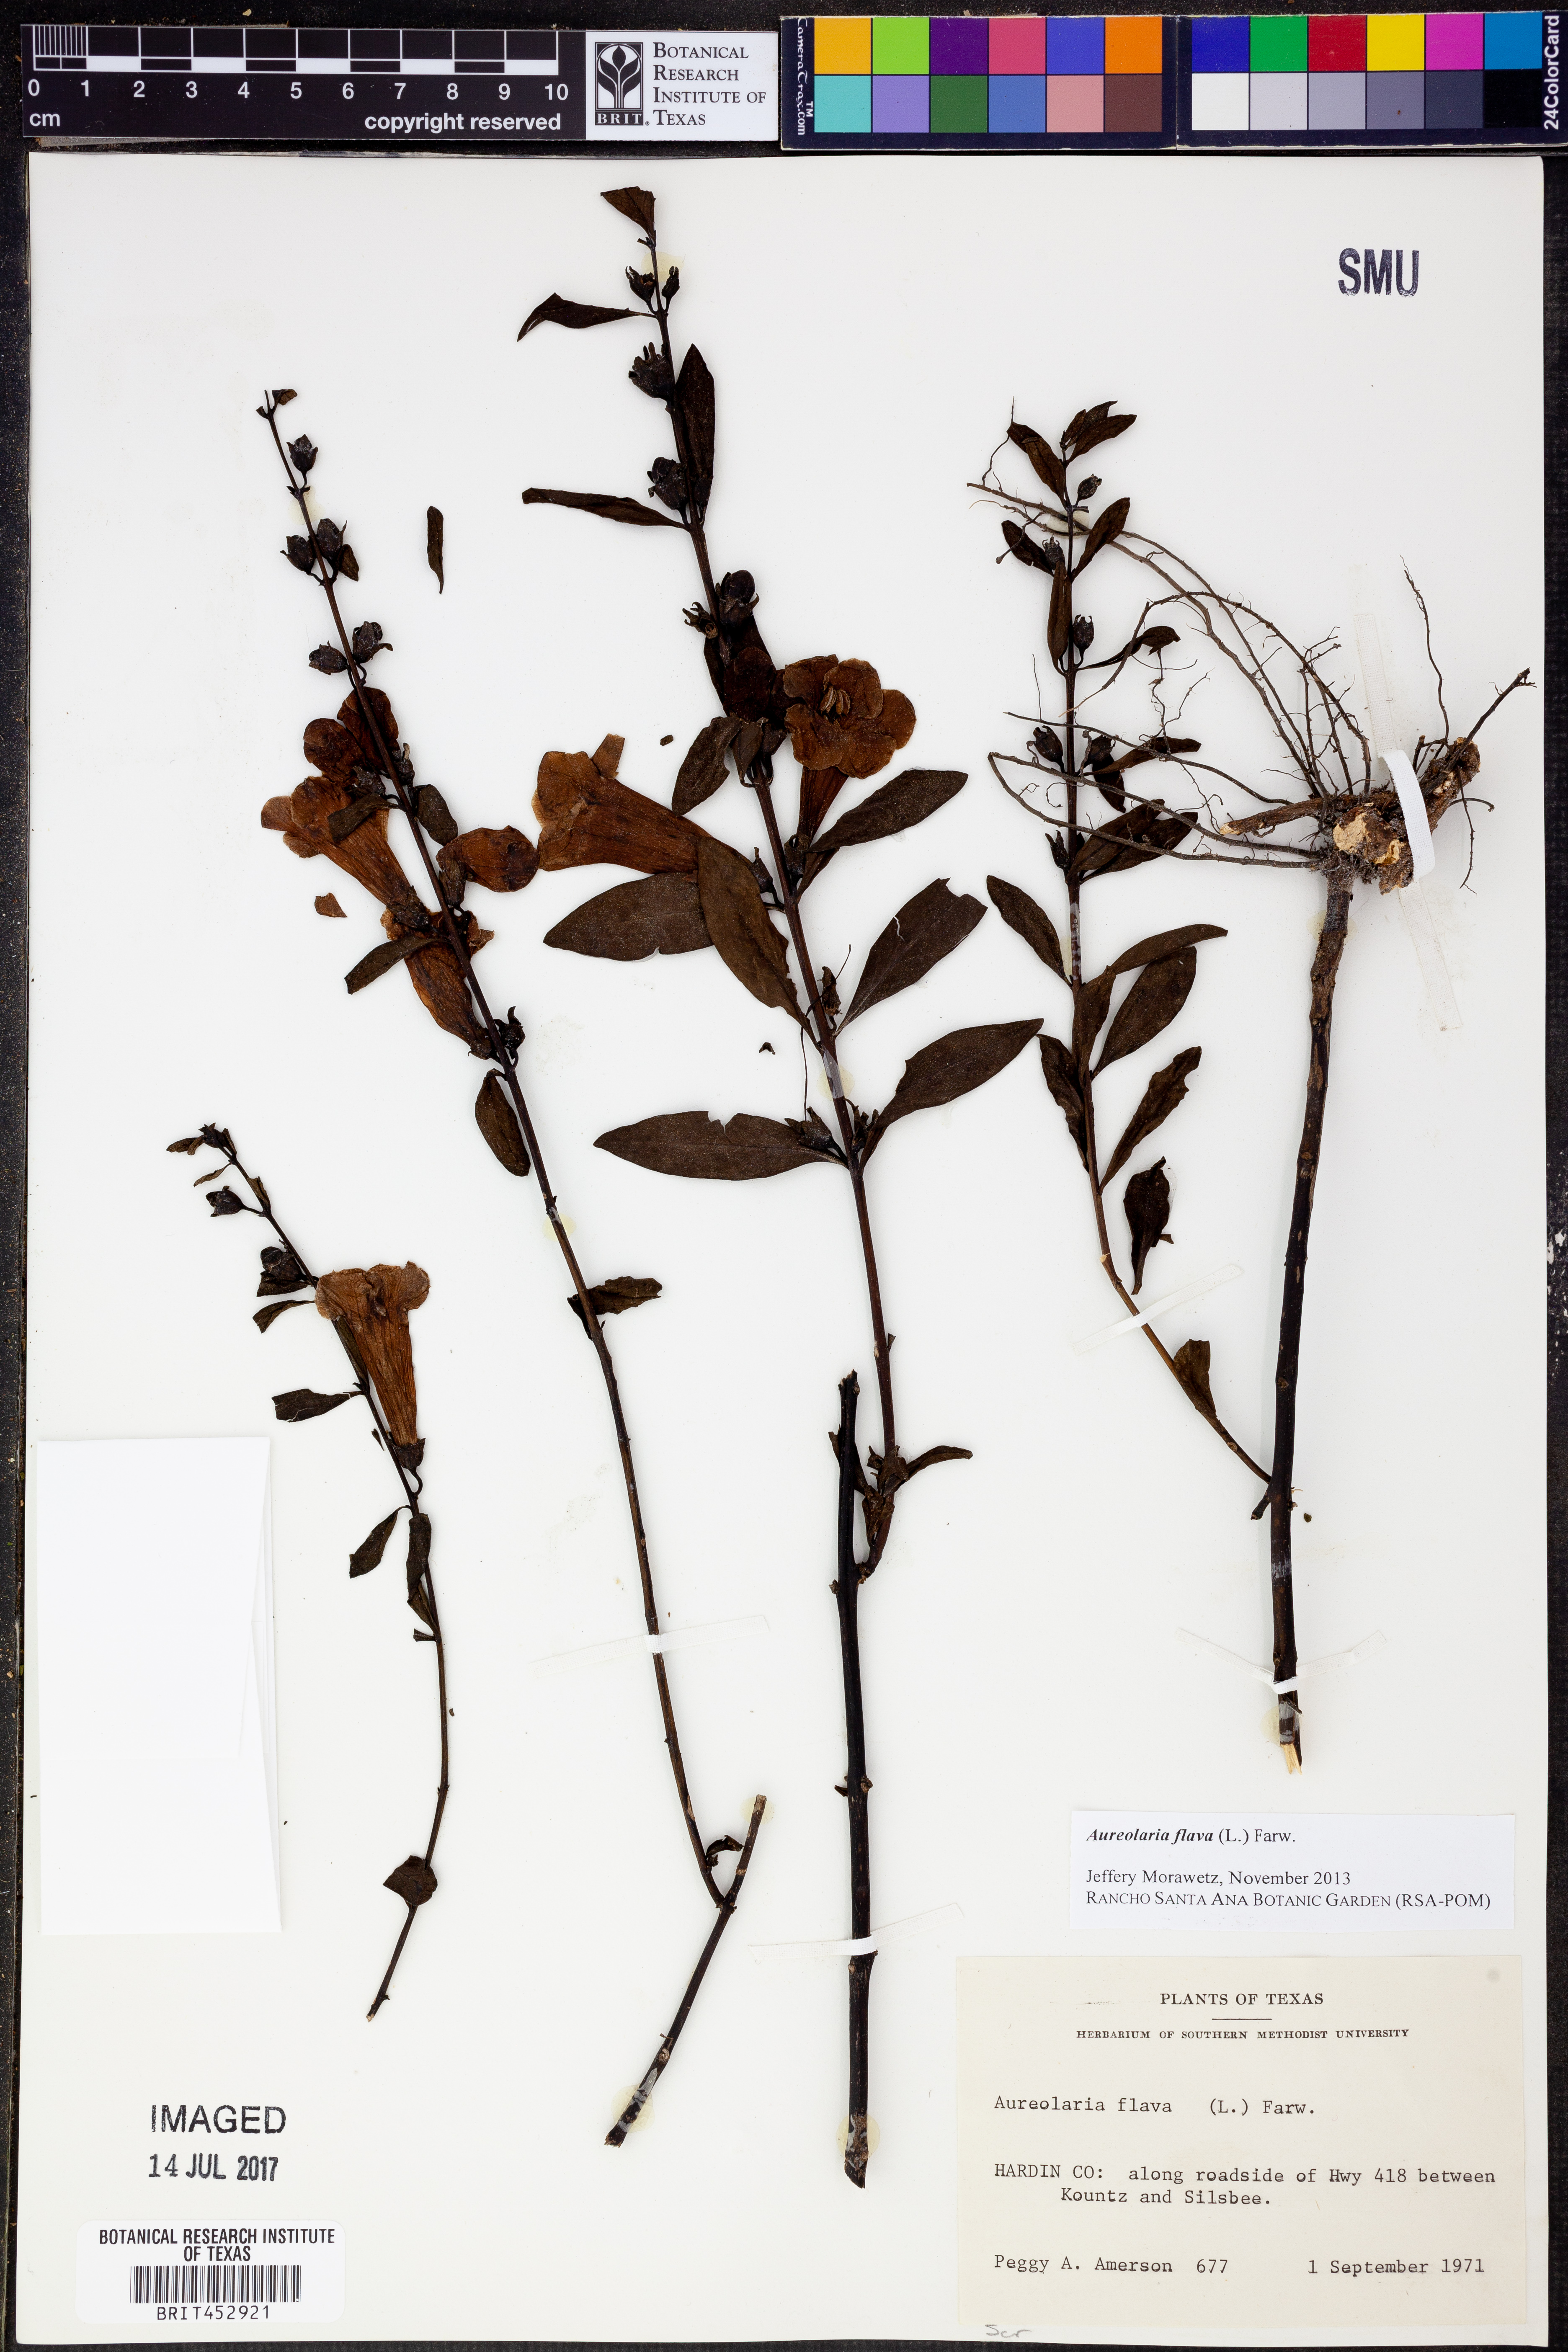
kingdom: Plantae
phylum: Tracheophyta
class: Magnoliopsida
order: Lamiales
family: Orobanchaceae
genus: Aureolaria
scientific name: Aureolaria flava
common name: Smooth false foxglove
